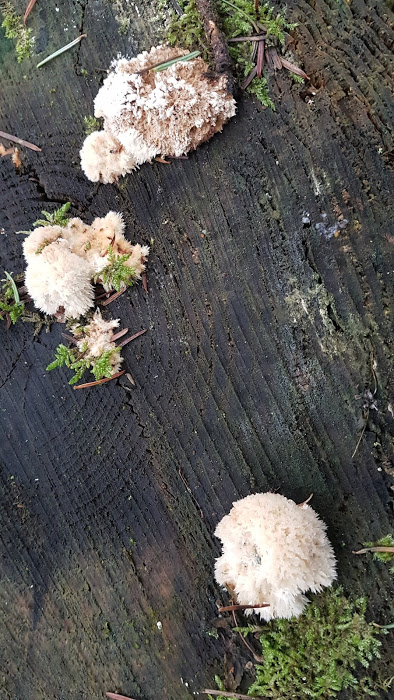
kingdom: Fungi
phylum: Basidiomycota
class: Agaricomycetes
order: Polyporales
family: Dacryobolaceae
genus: Postia
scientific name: Postia ptychogaster
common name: støvende kødporesvamp
